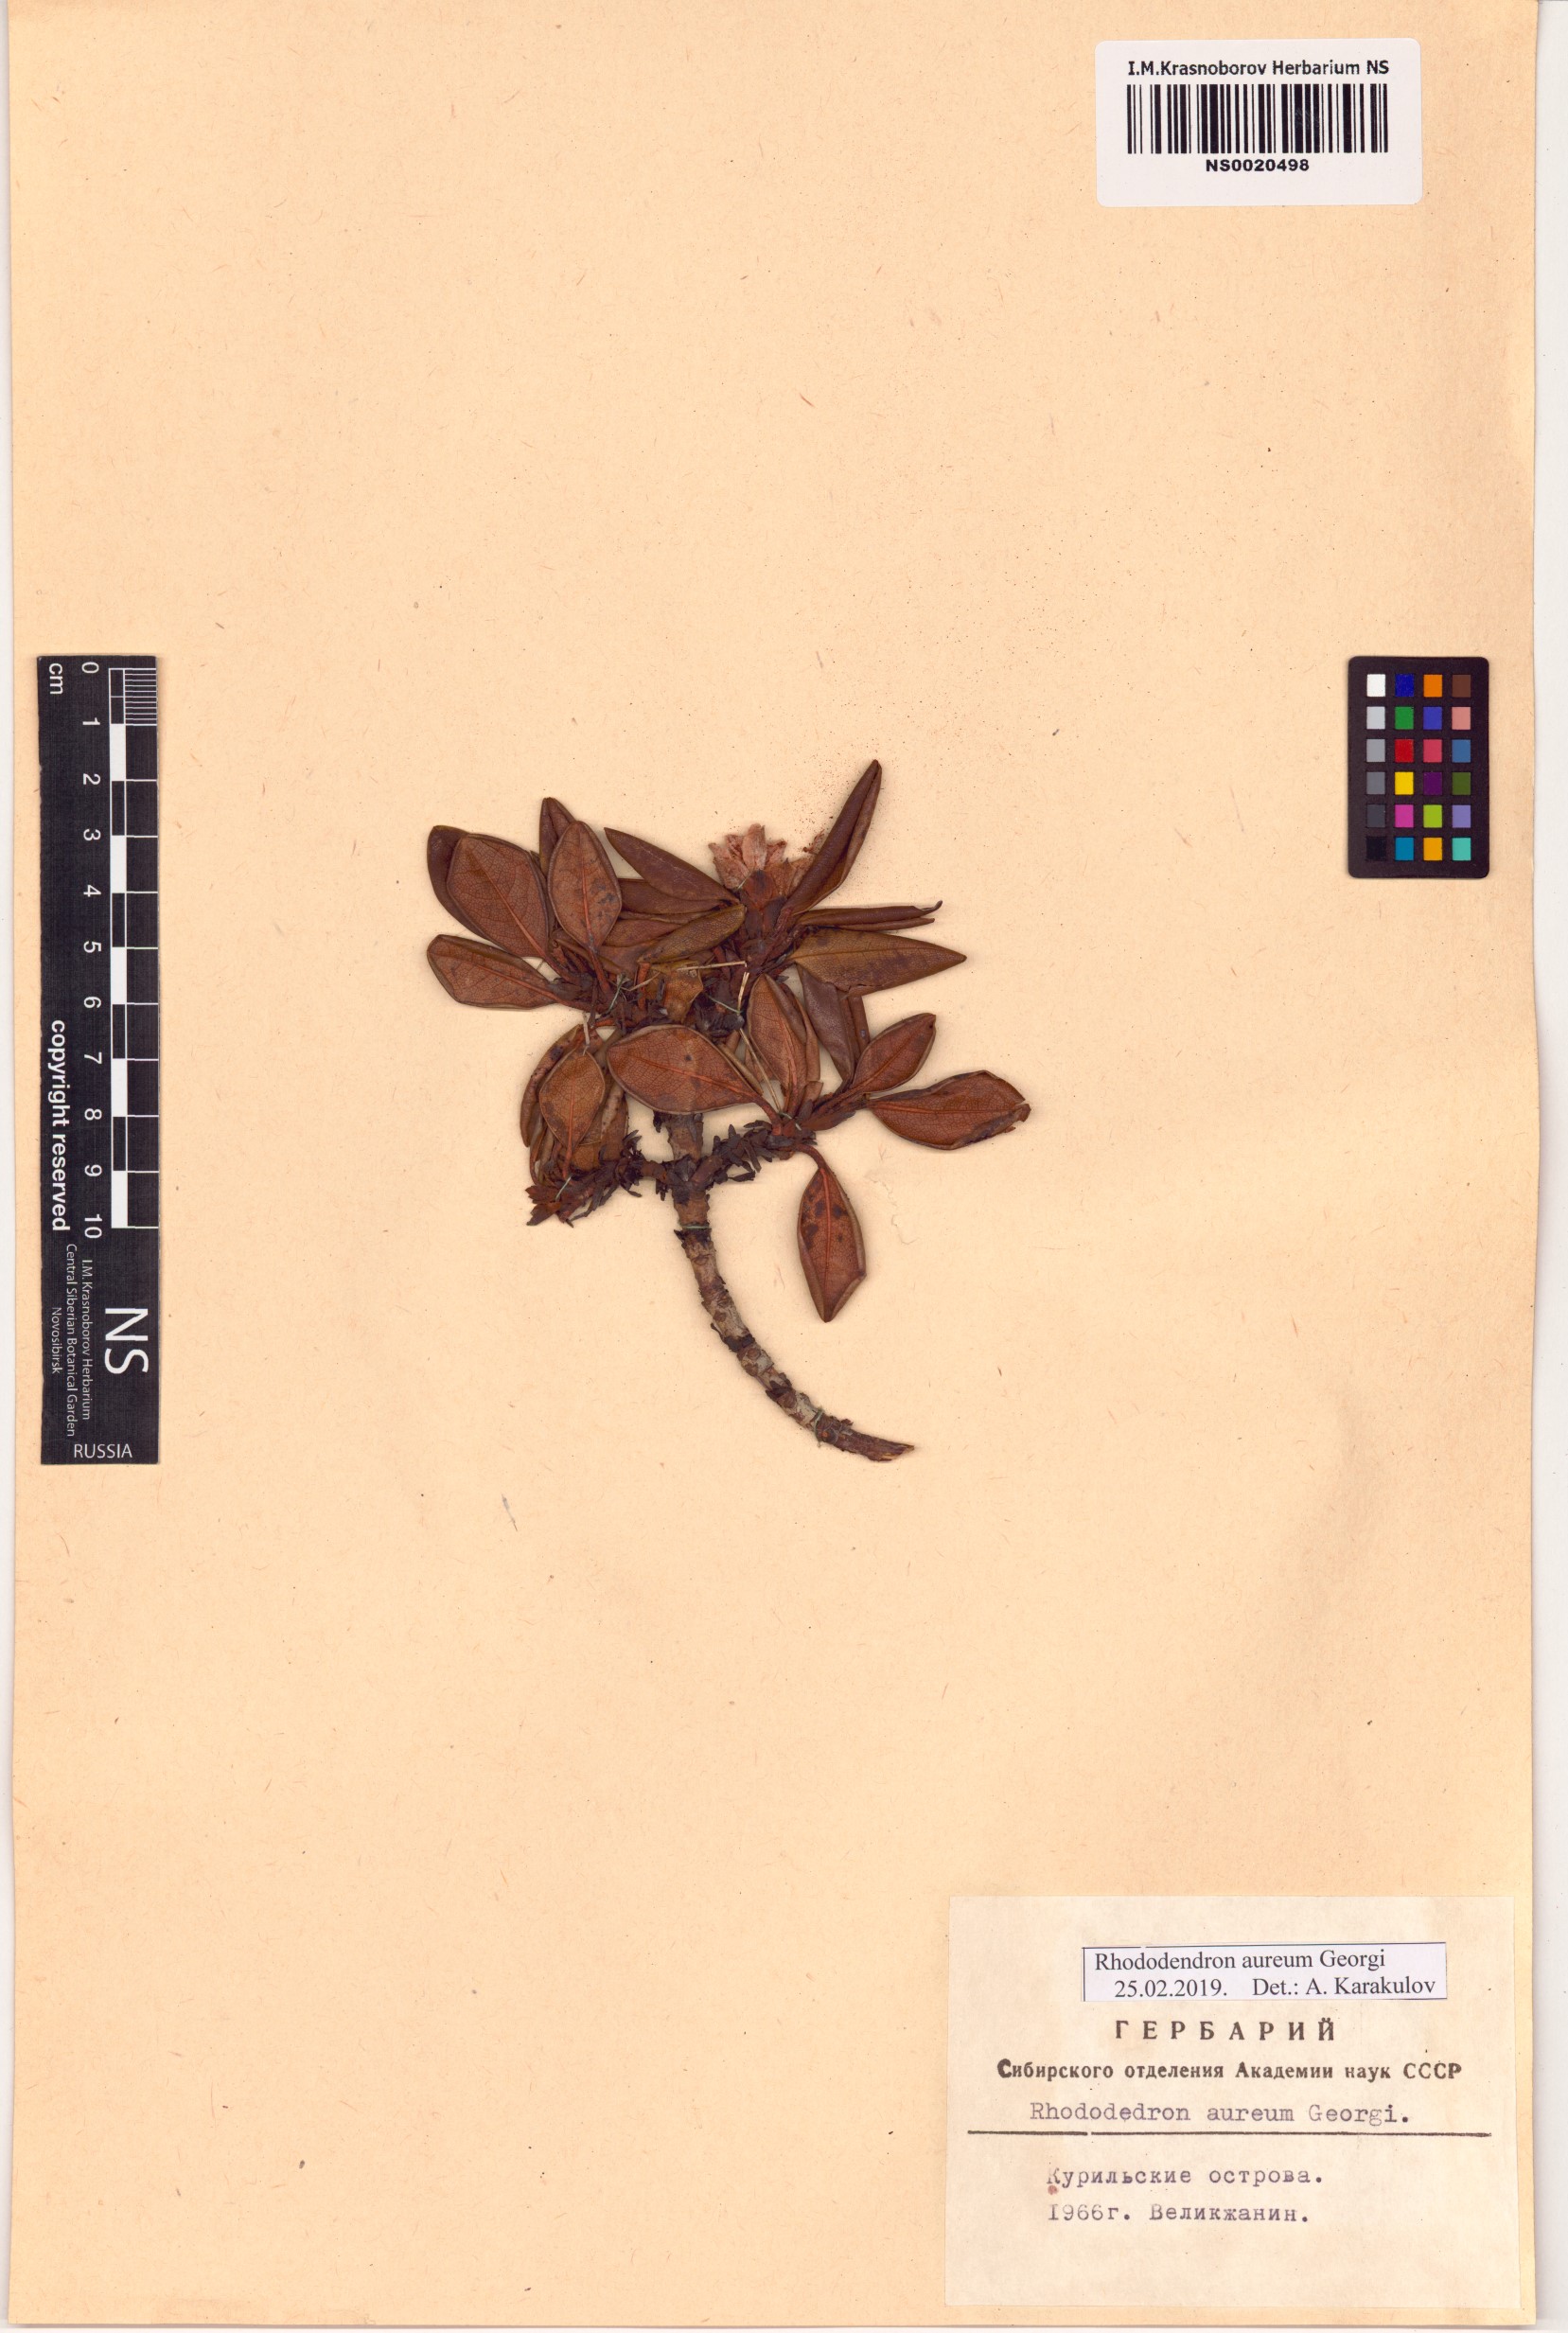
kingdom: Plantae
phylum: Tracheophyta
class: Magnoliopsida
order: Ericales
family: Ericaceae
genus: Rhododendron
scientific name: Rhododendron aureum
